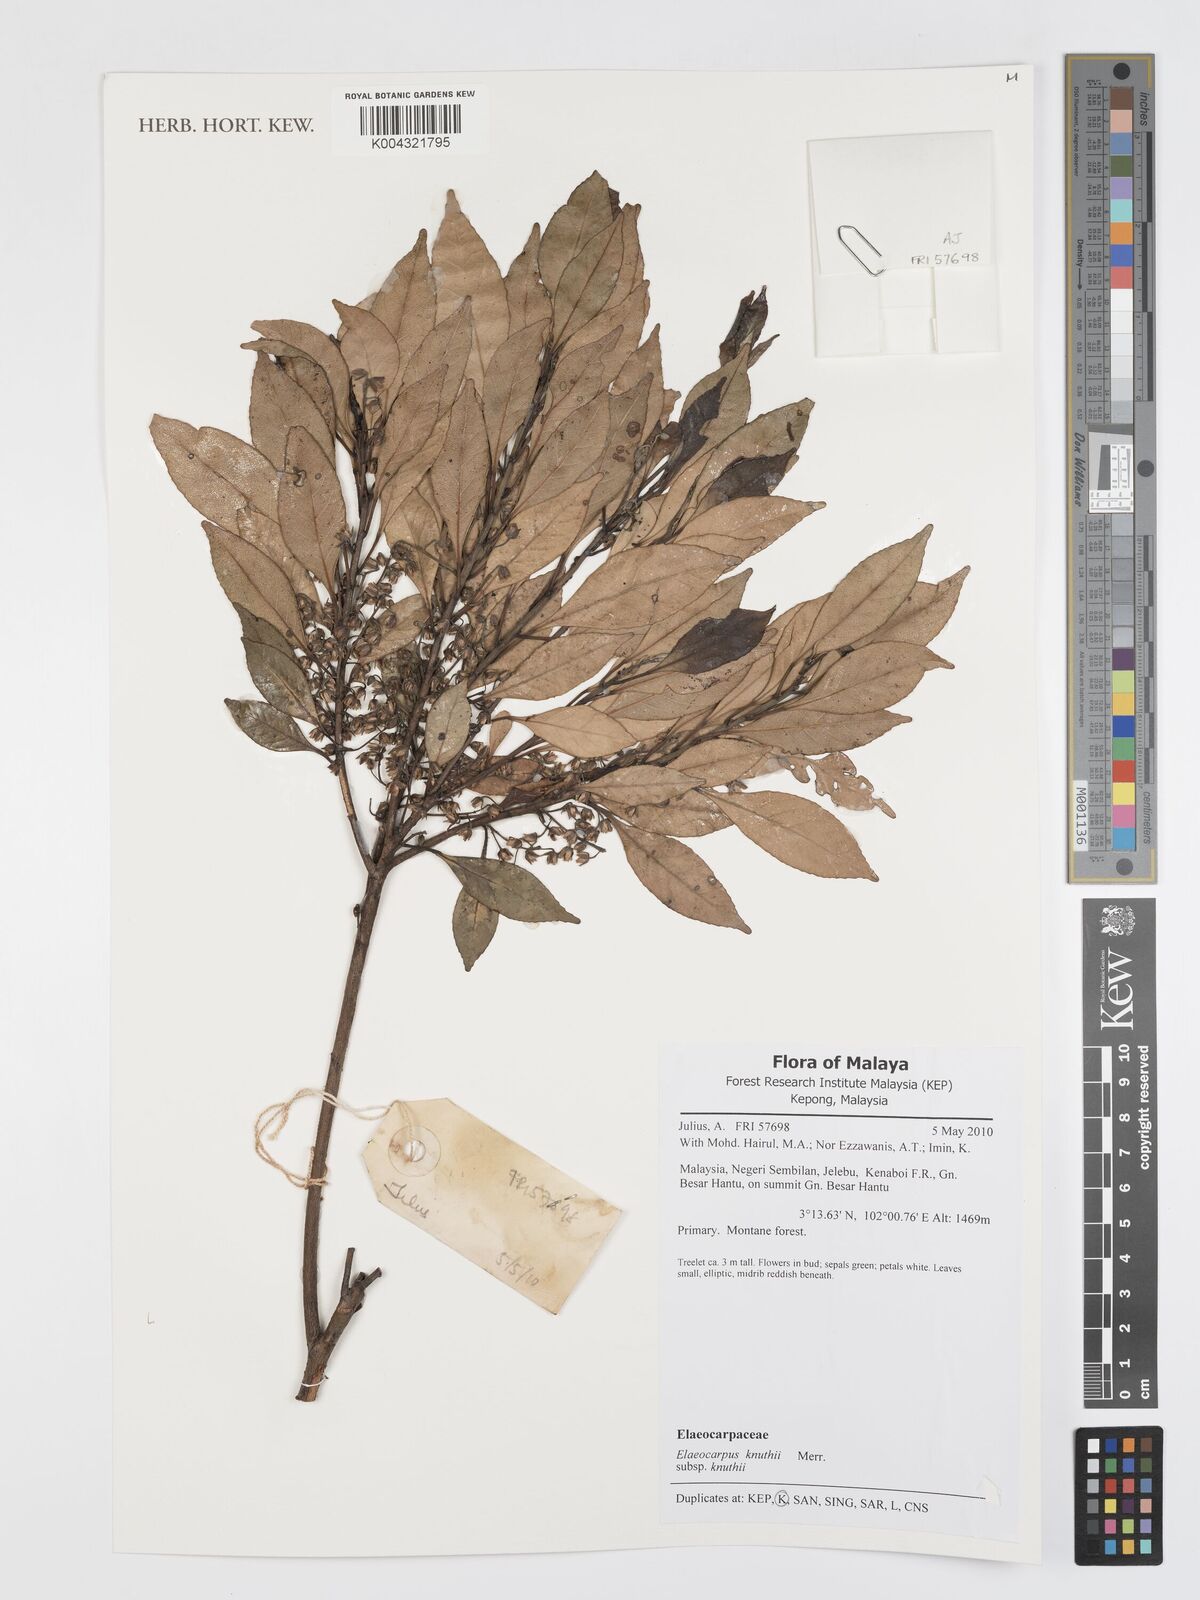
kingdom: Plantae
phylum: Tracheophyta
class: Magnoliopsida
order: Oxalidales
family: Elaeocarpaceae
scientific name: Elaeocarpaceae
